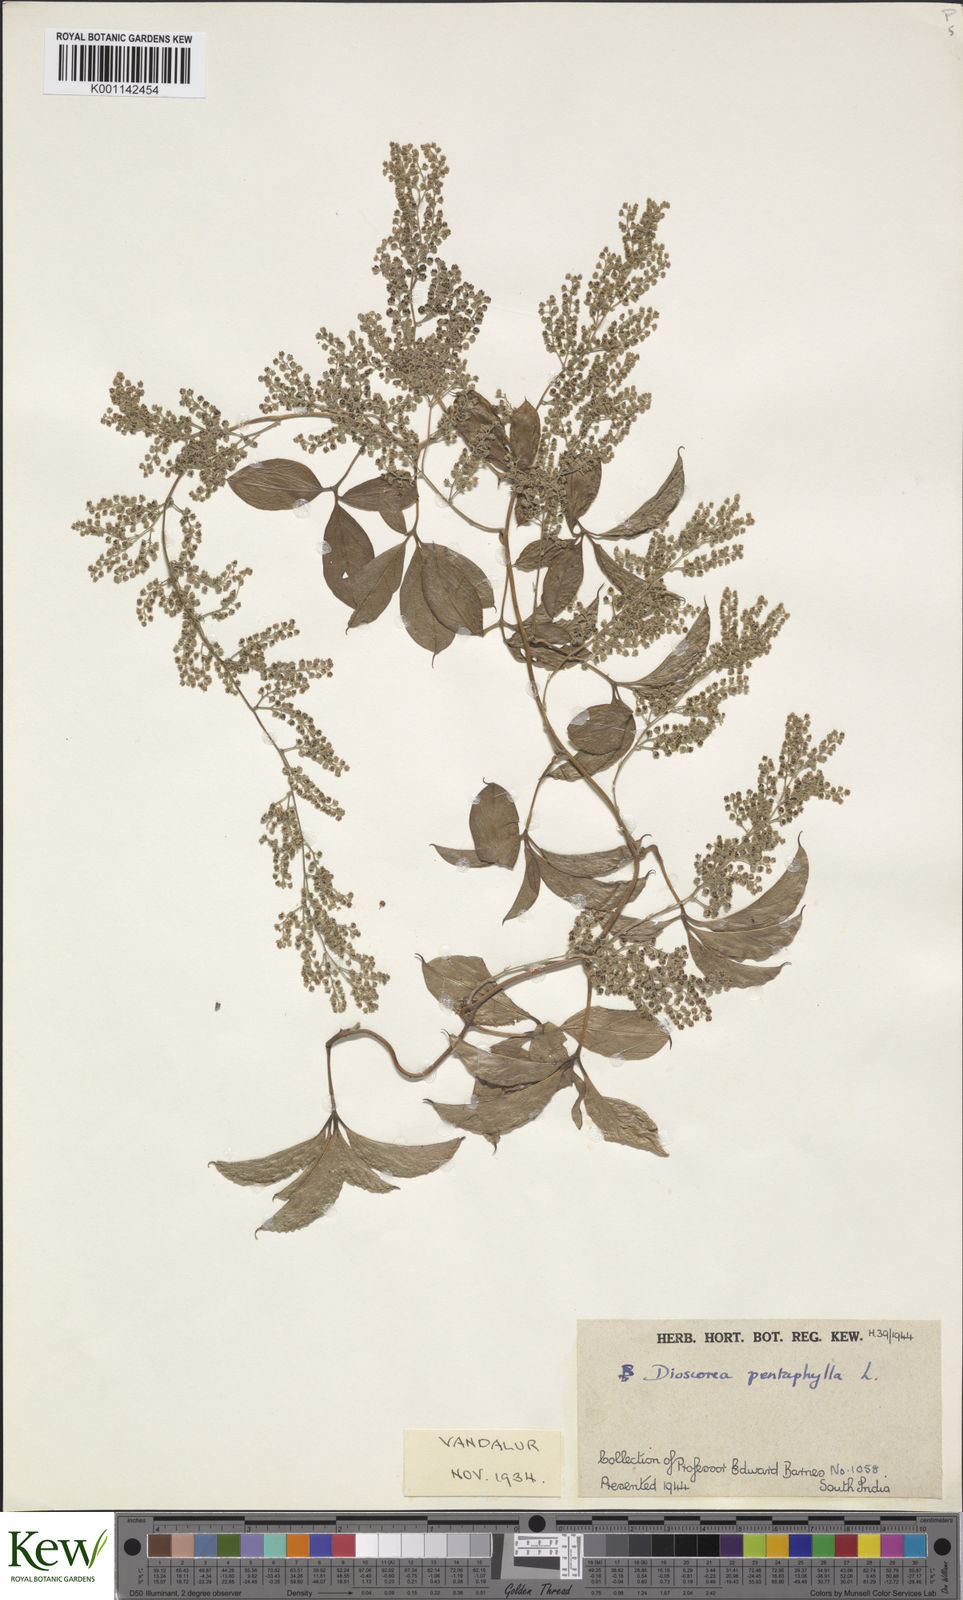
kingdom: Plantae
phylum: Tracheophyta
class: Liliopsida
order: Dioscoreales
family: Dioscoreaceae
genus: Dioscorea
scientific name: Dioscorea pentaphylla
